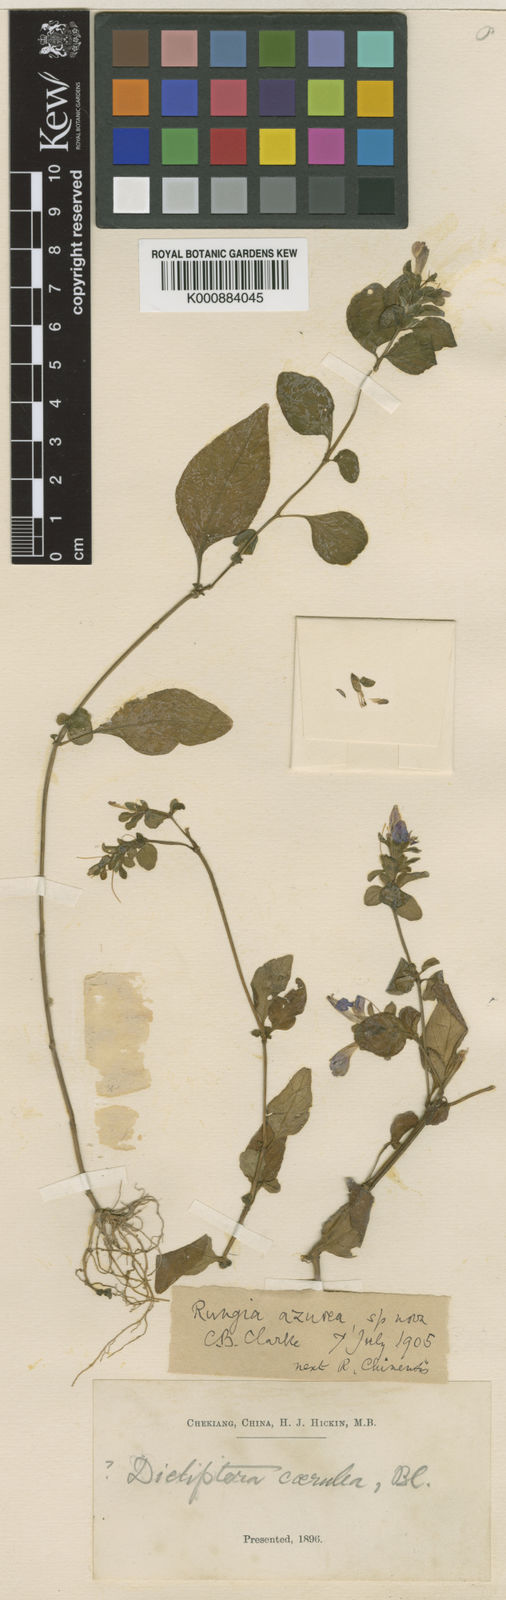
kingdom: Plantae
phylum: Tracheophyta
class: Magnoliopsida
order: Lamiales
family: Acanthaceae
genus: Justicia
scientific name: Justicia
